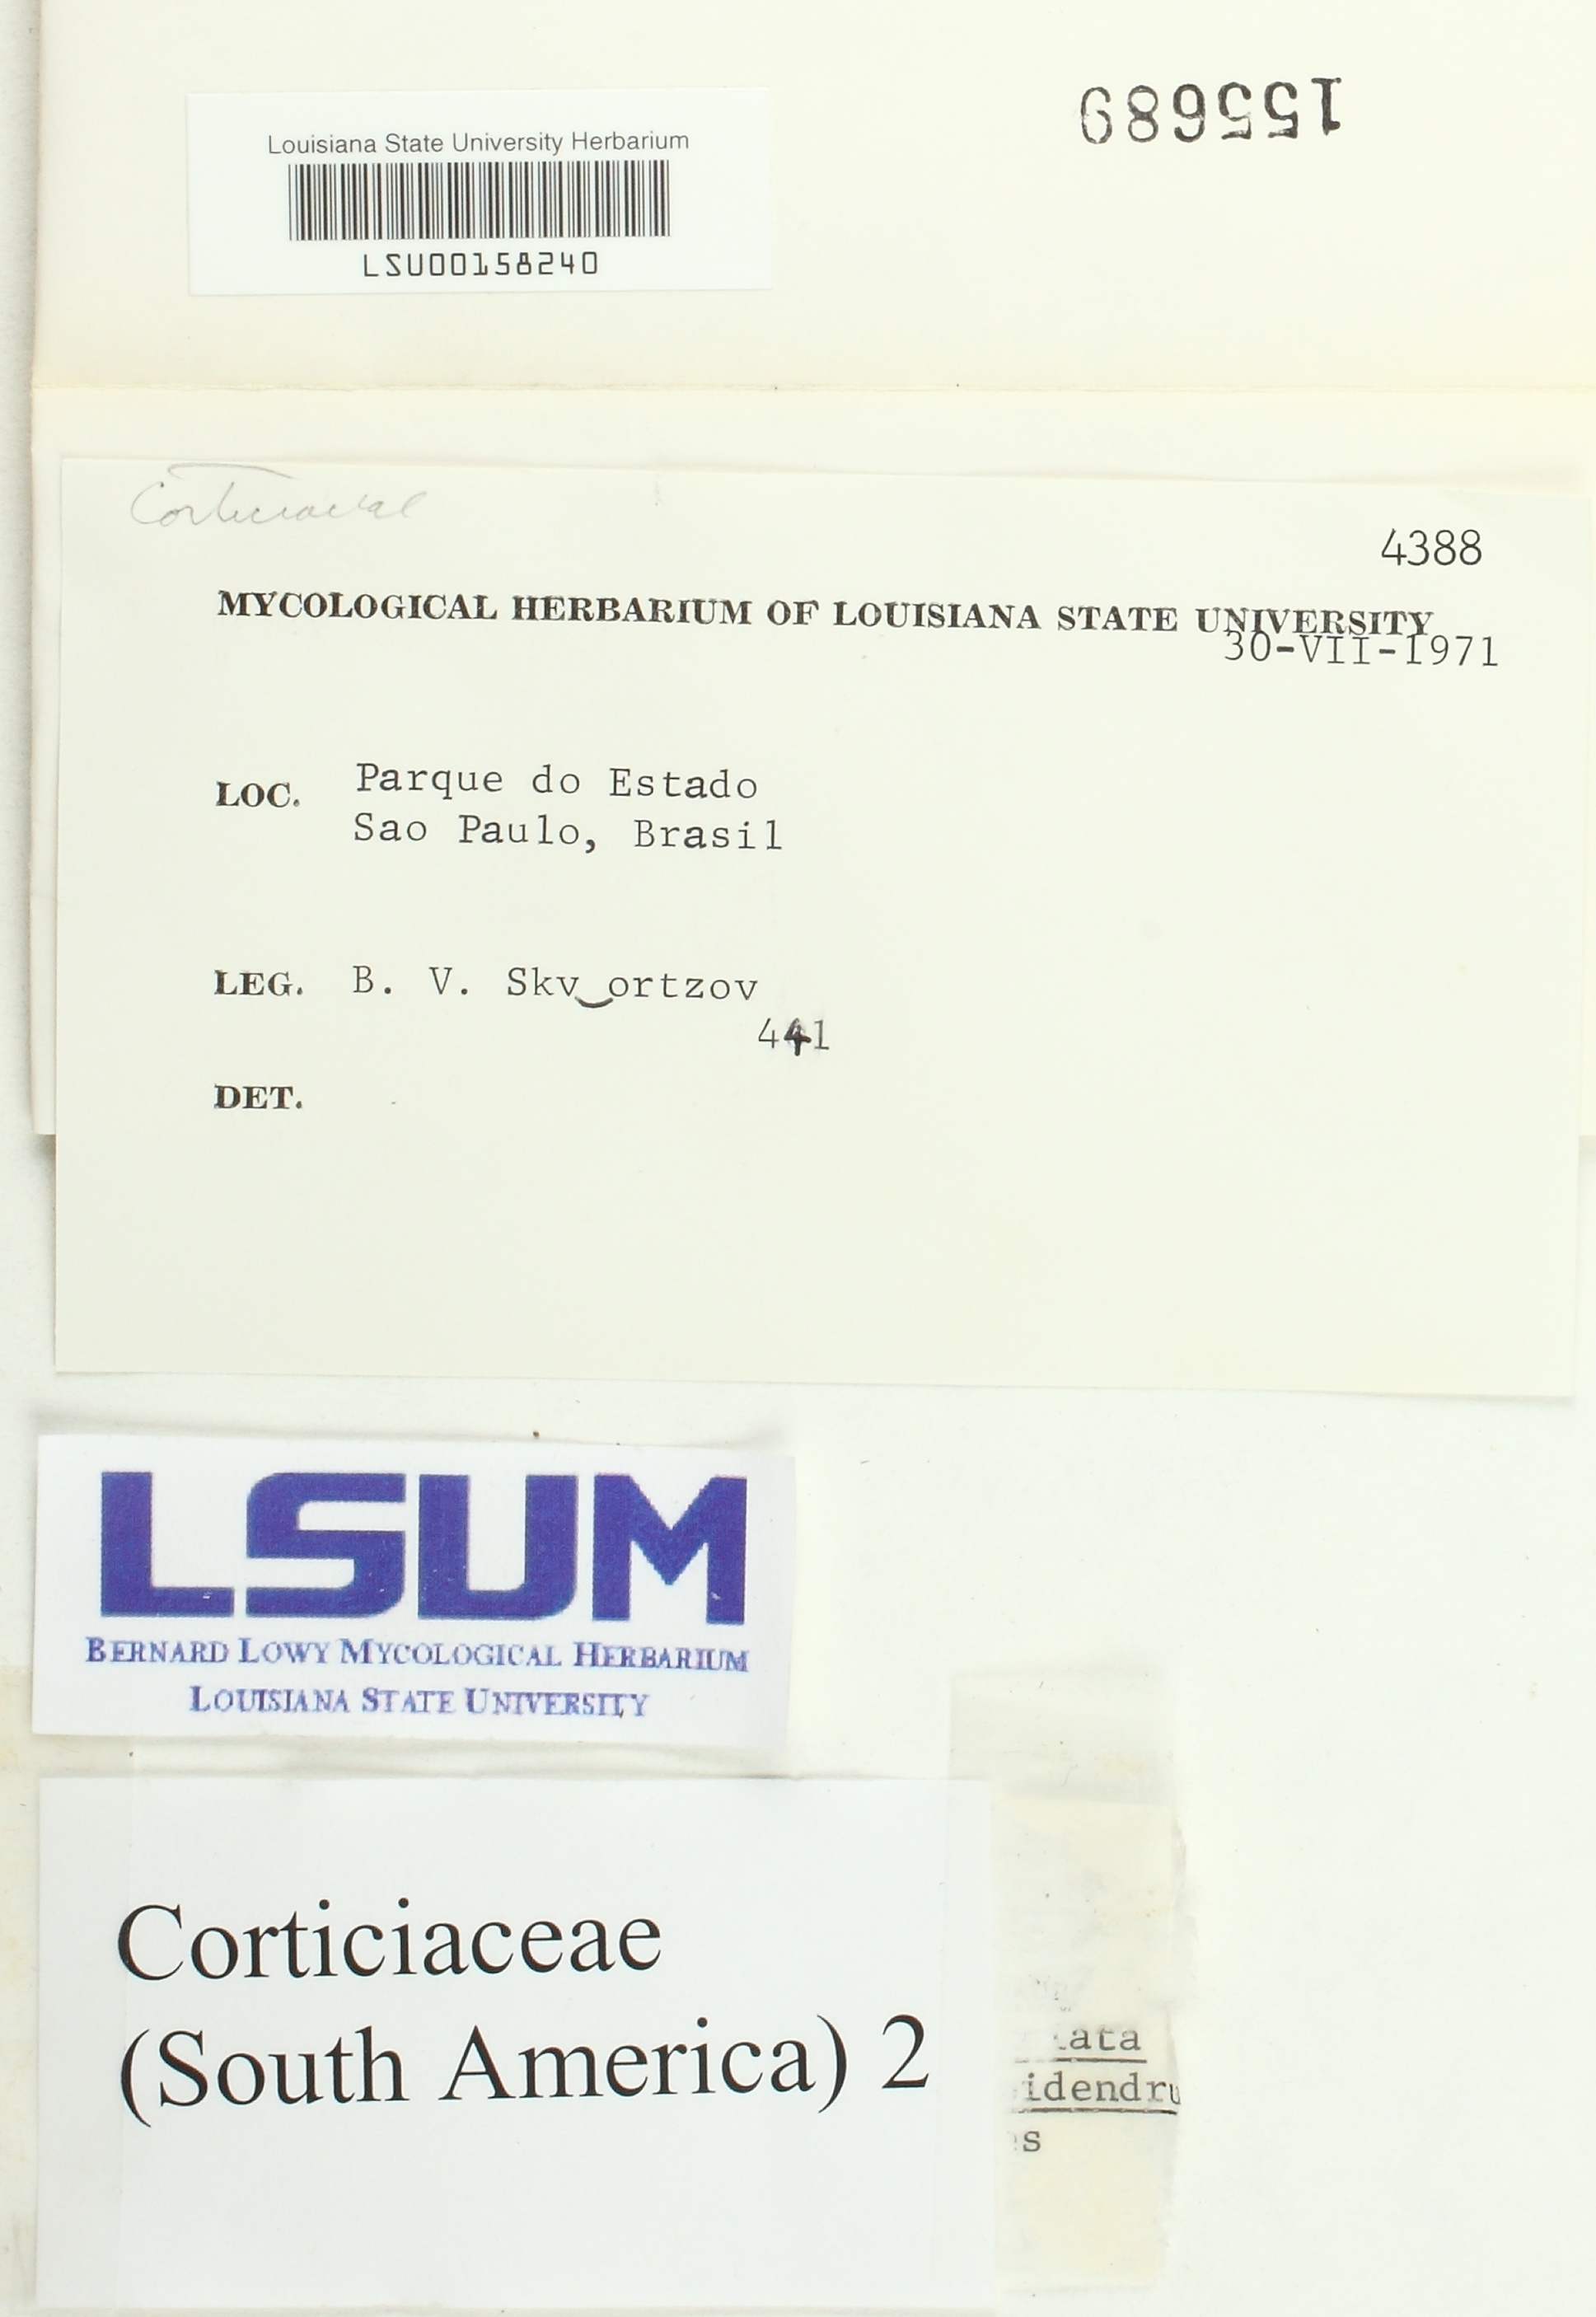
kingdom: Fungi
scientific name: Fungi
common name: Fungi
